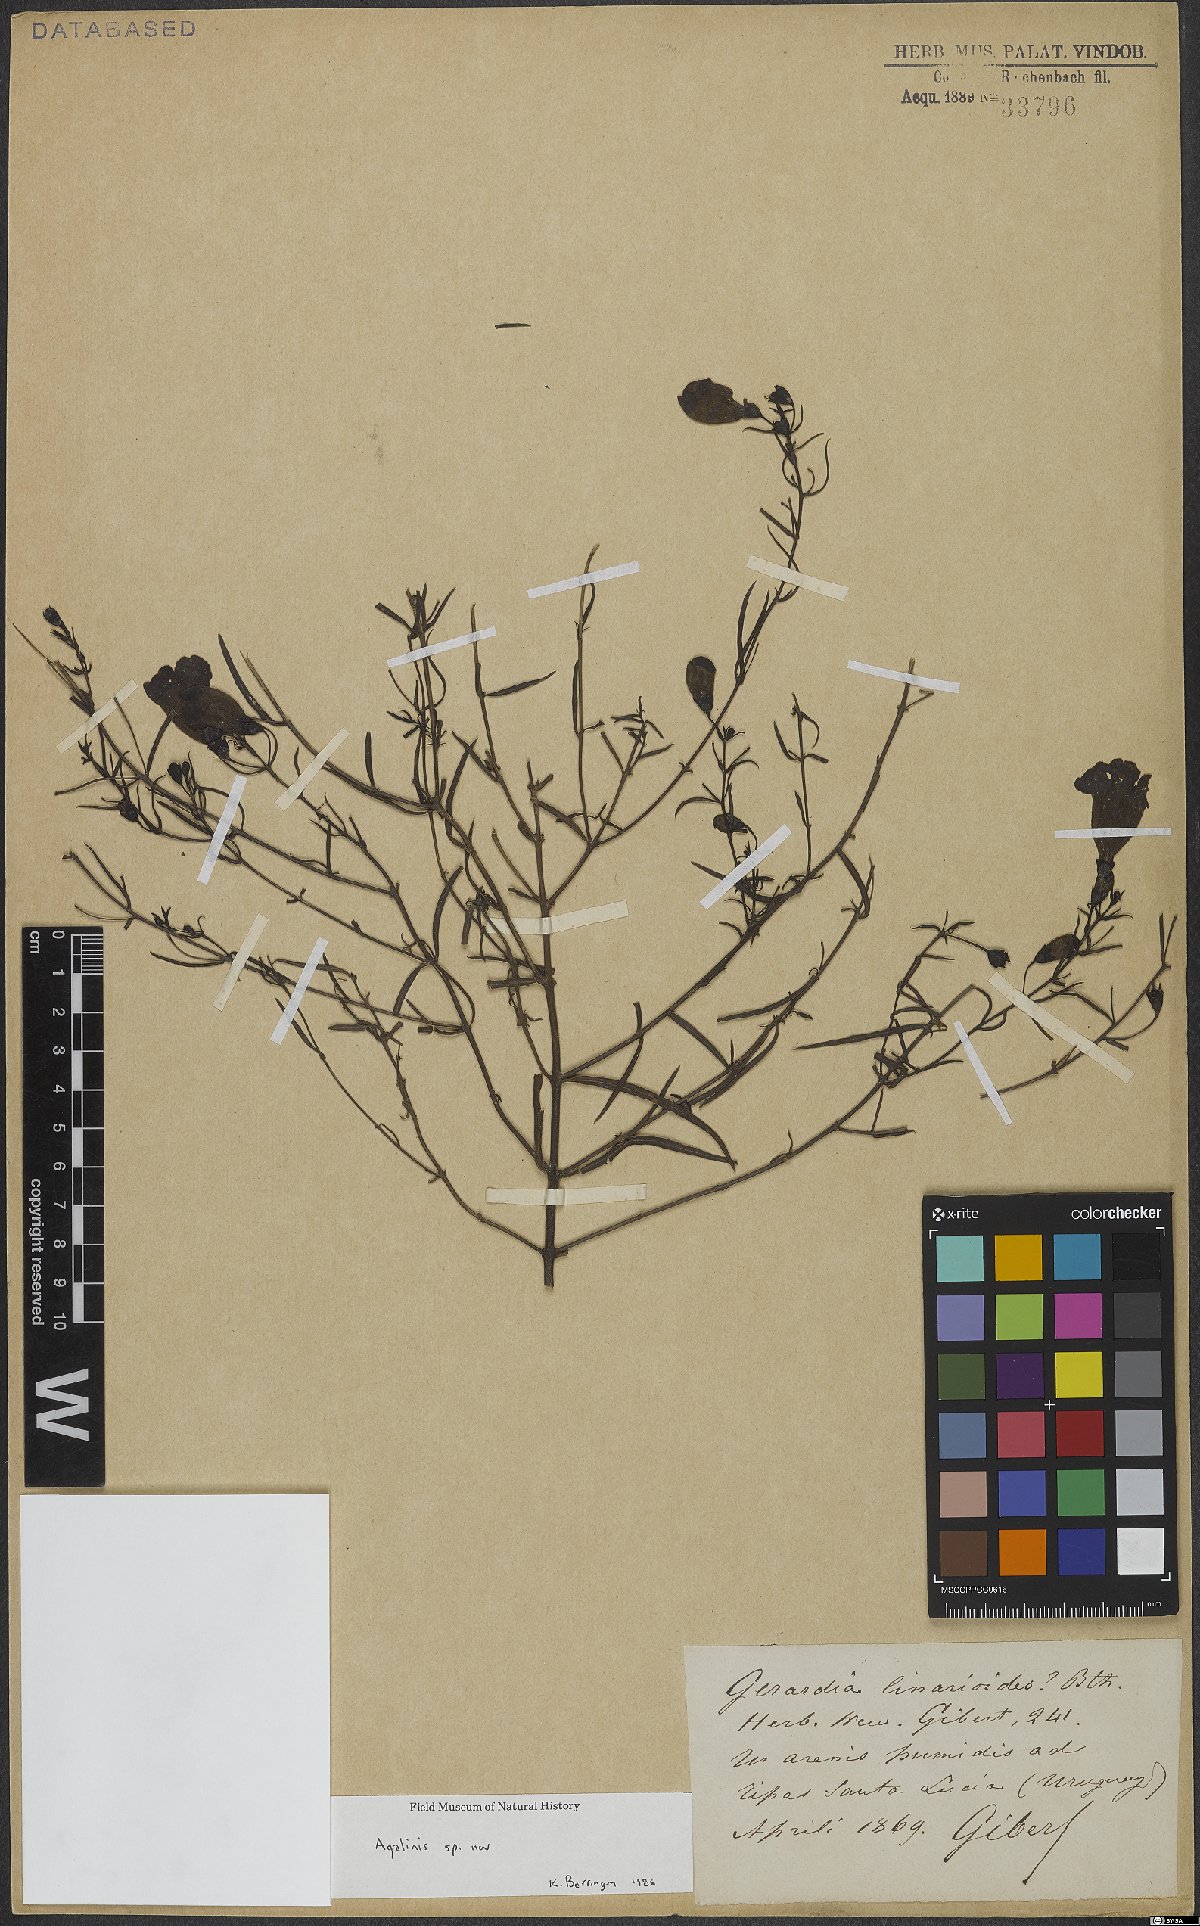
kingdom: Plantae
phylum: Tracheophyta
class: Magnoliopsida
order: Lamiales
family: Orobanchaceae
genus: Agalinis
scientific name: Agalinis
